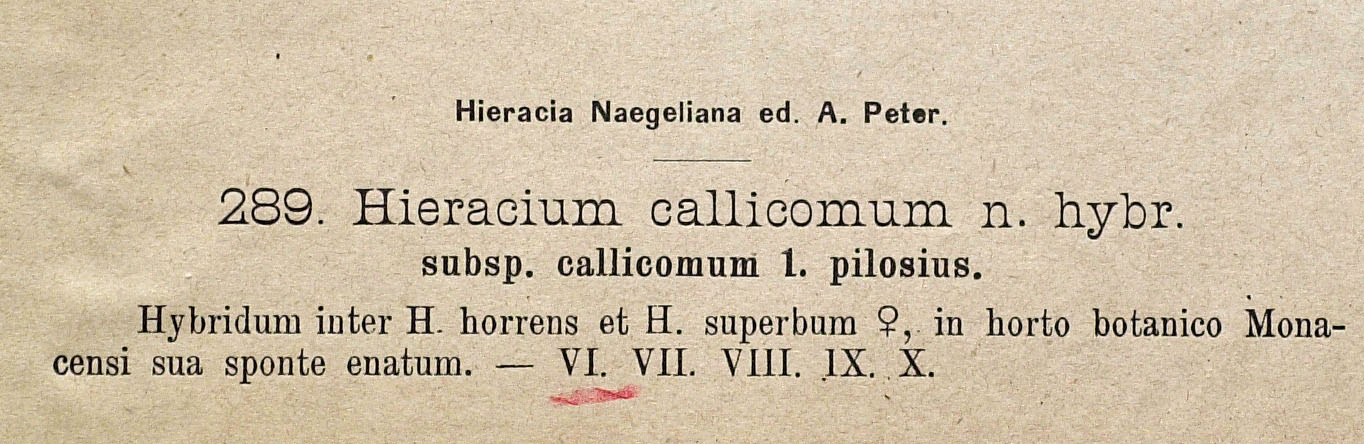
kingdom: Plantae
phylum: Tracheophyta
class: Magnoliopsida
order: Asterales
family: Asteraceae
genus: Hieracium
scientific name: Hieracium callicomum
